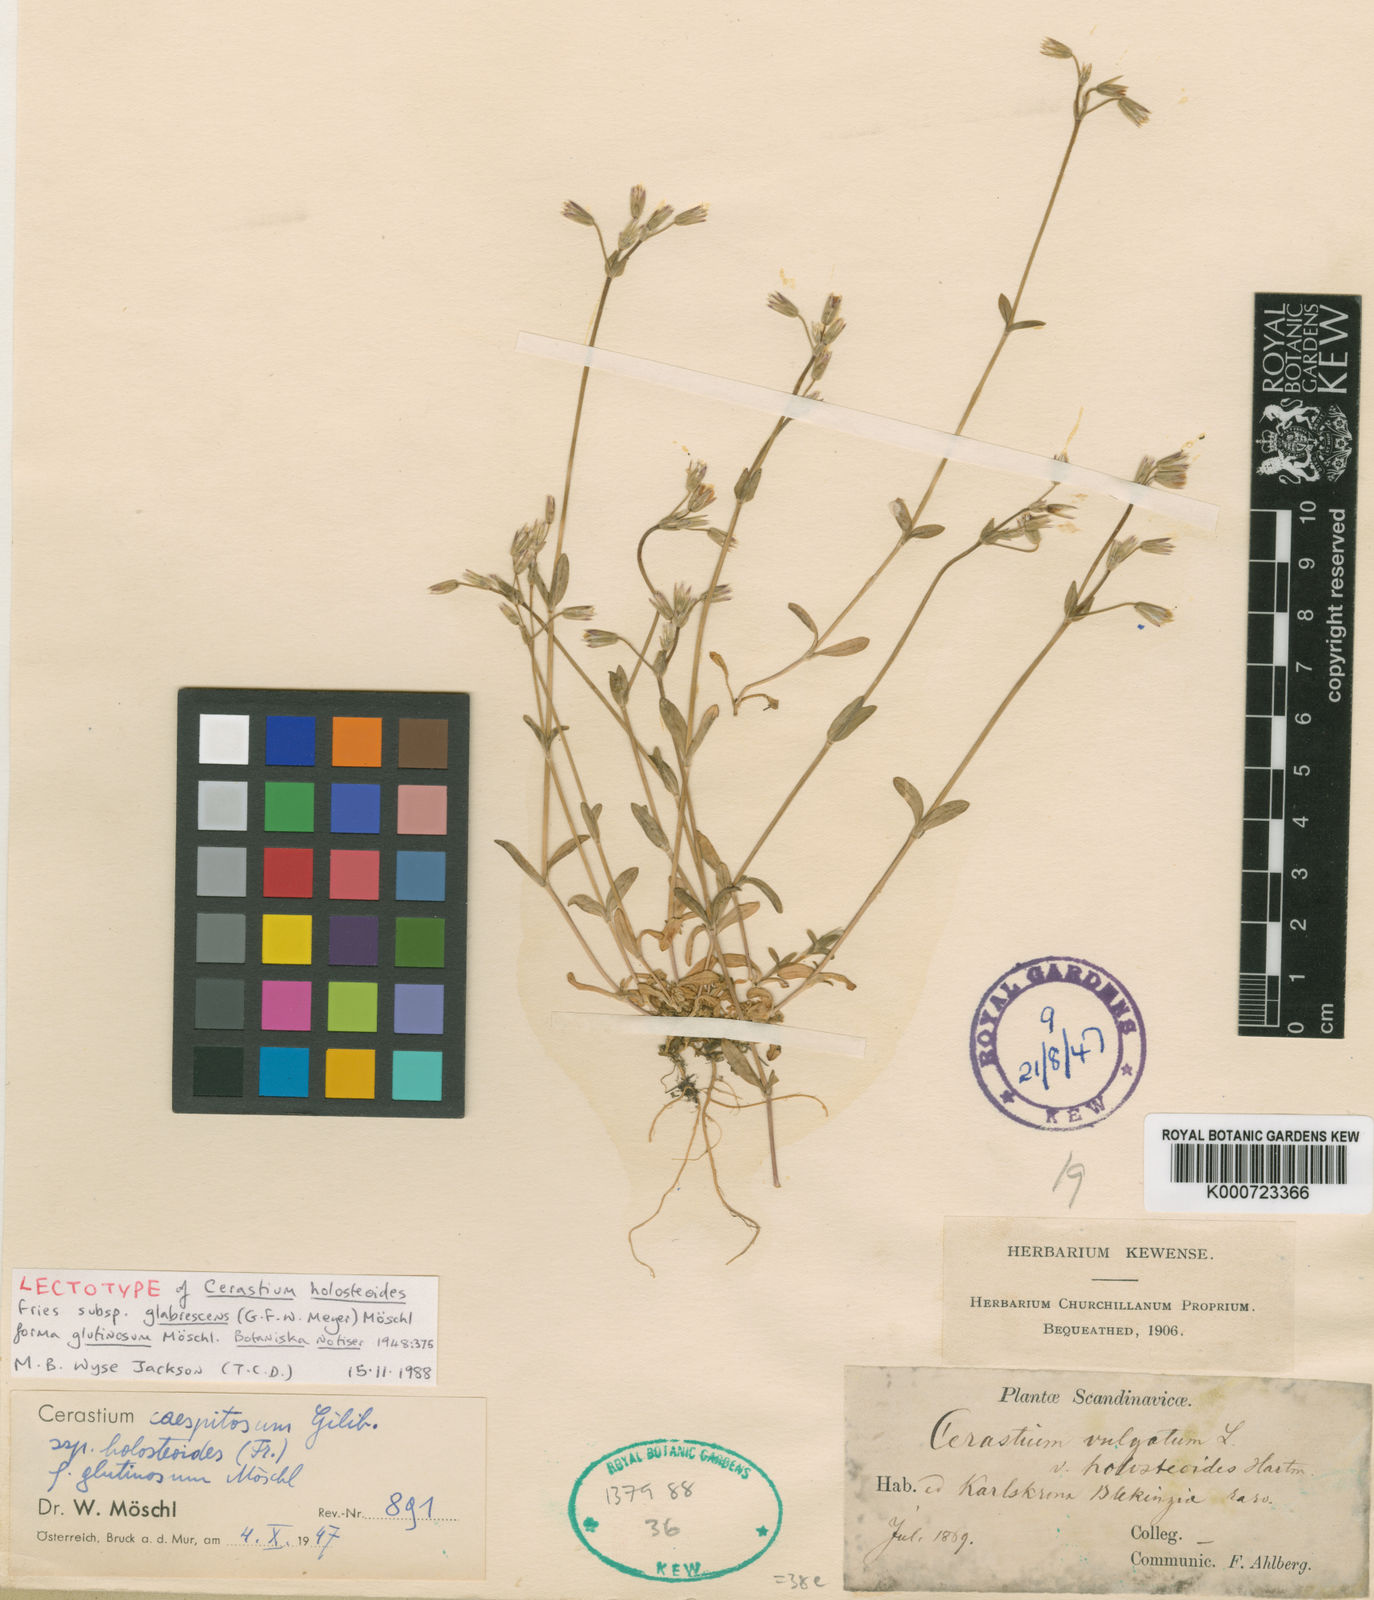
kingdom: Plantae
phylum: Tracheophyta
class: Magnoliopsida
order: Caryophyllales
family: Caryophyllaceae
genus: Cerastium
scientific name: Cerastium glomeratum
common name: Sticky chickweed
